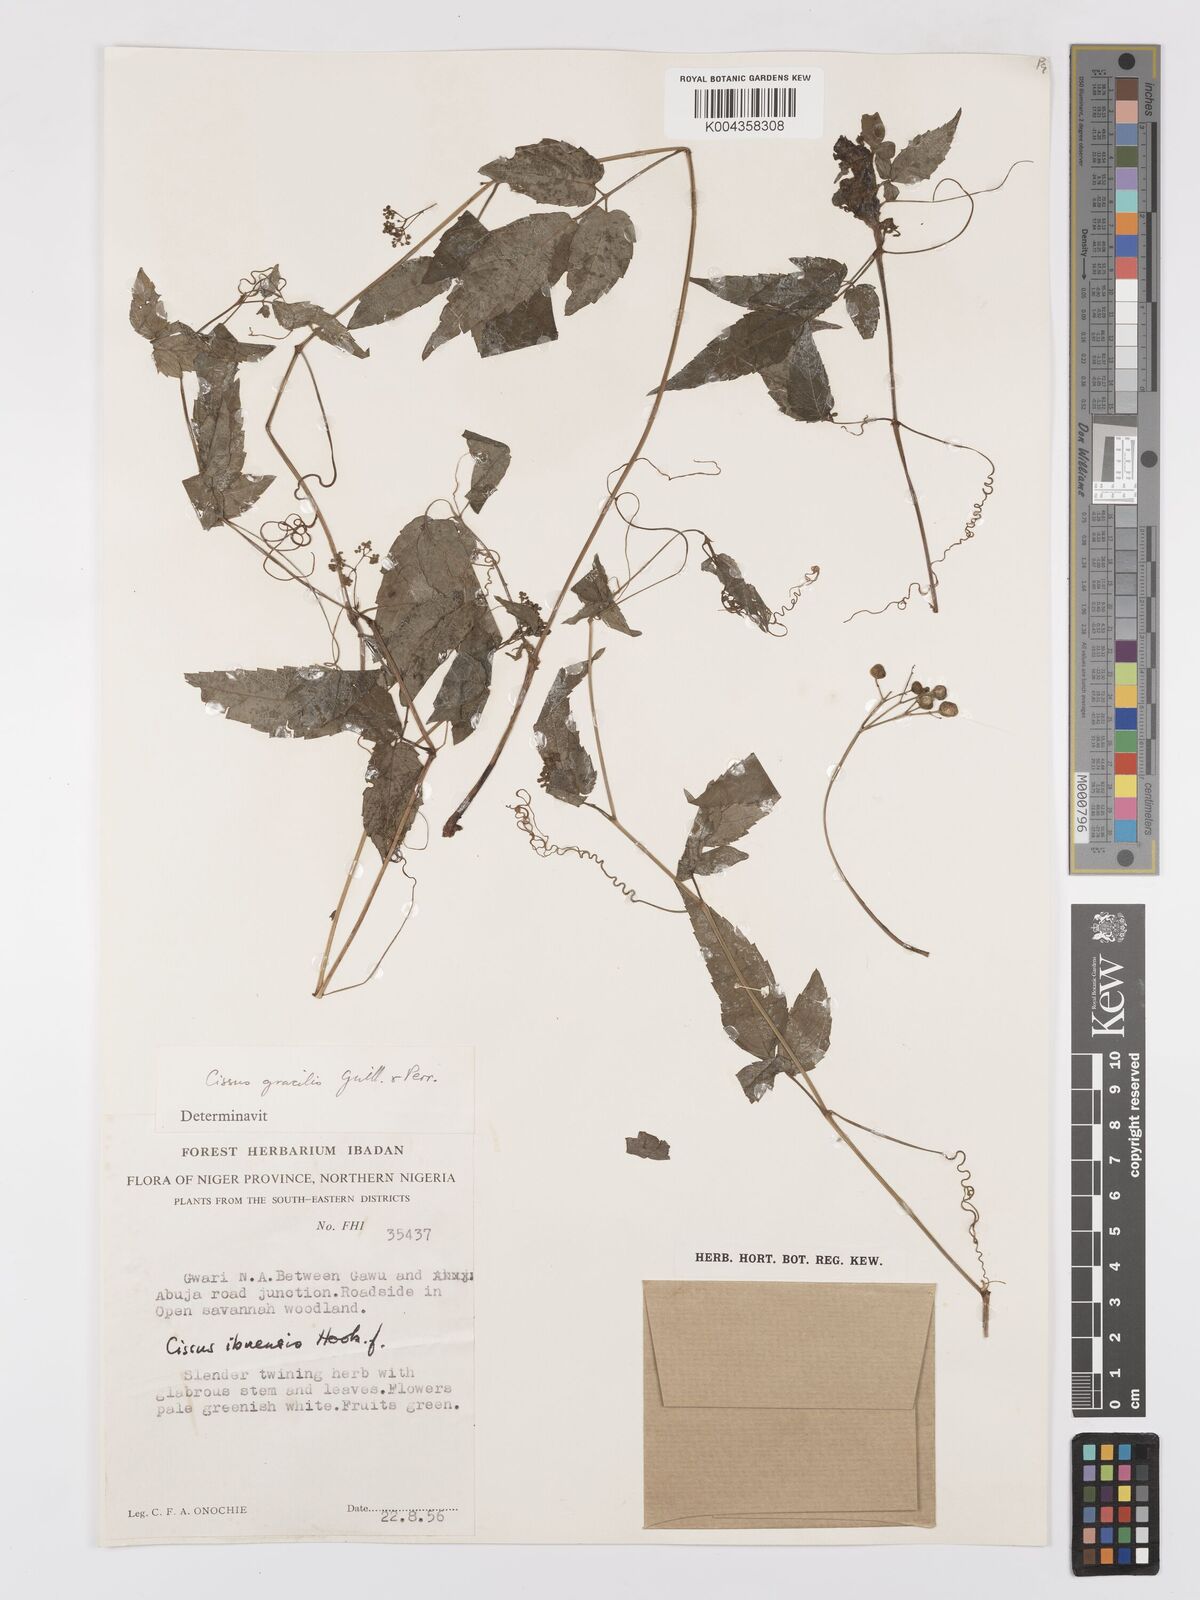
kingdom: Plantae
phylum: Tracheophyta
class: Magnoliopsida
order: Vitales
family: Vitaceae
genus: Afrocayratia
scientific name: Afrocayratia gracilis
